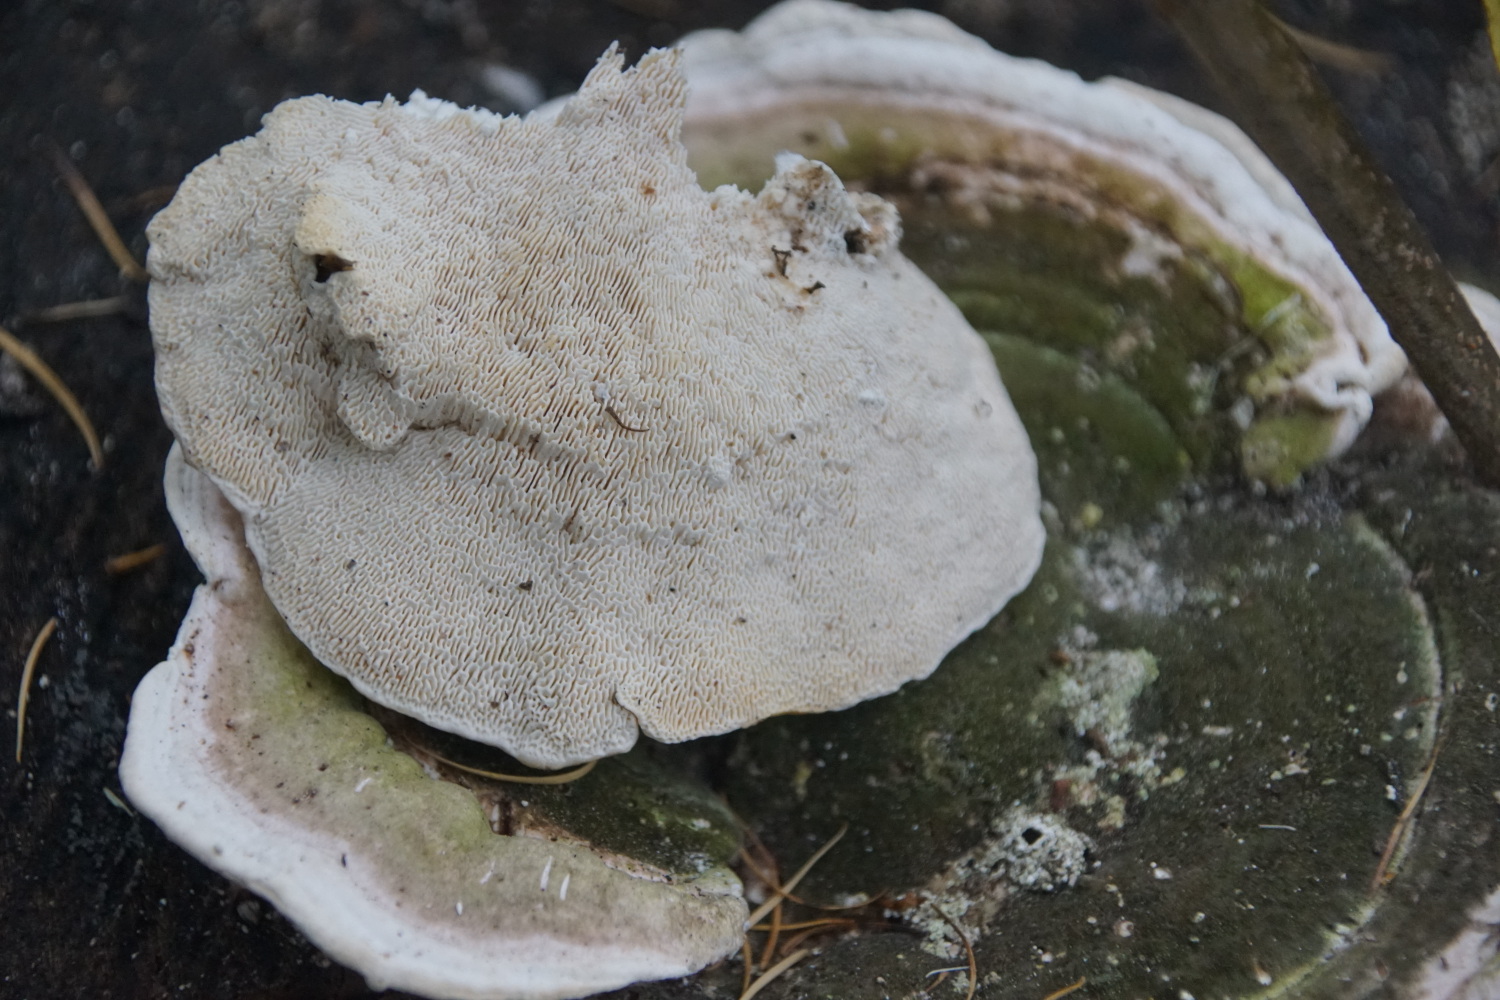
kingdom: Fungi
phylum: Basidiomycota
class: Agaricomycetes
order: Polyporales
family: Polyporaceae
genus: Trametes
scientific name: Trametes gibbosa
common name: puklet læderporesvamp
